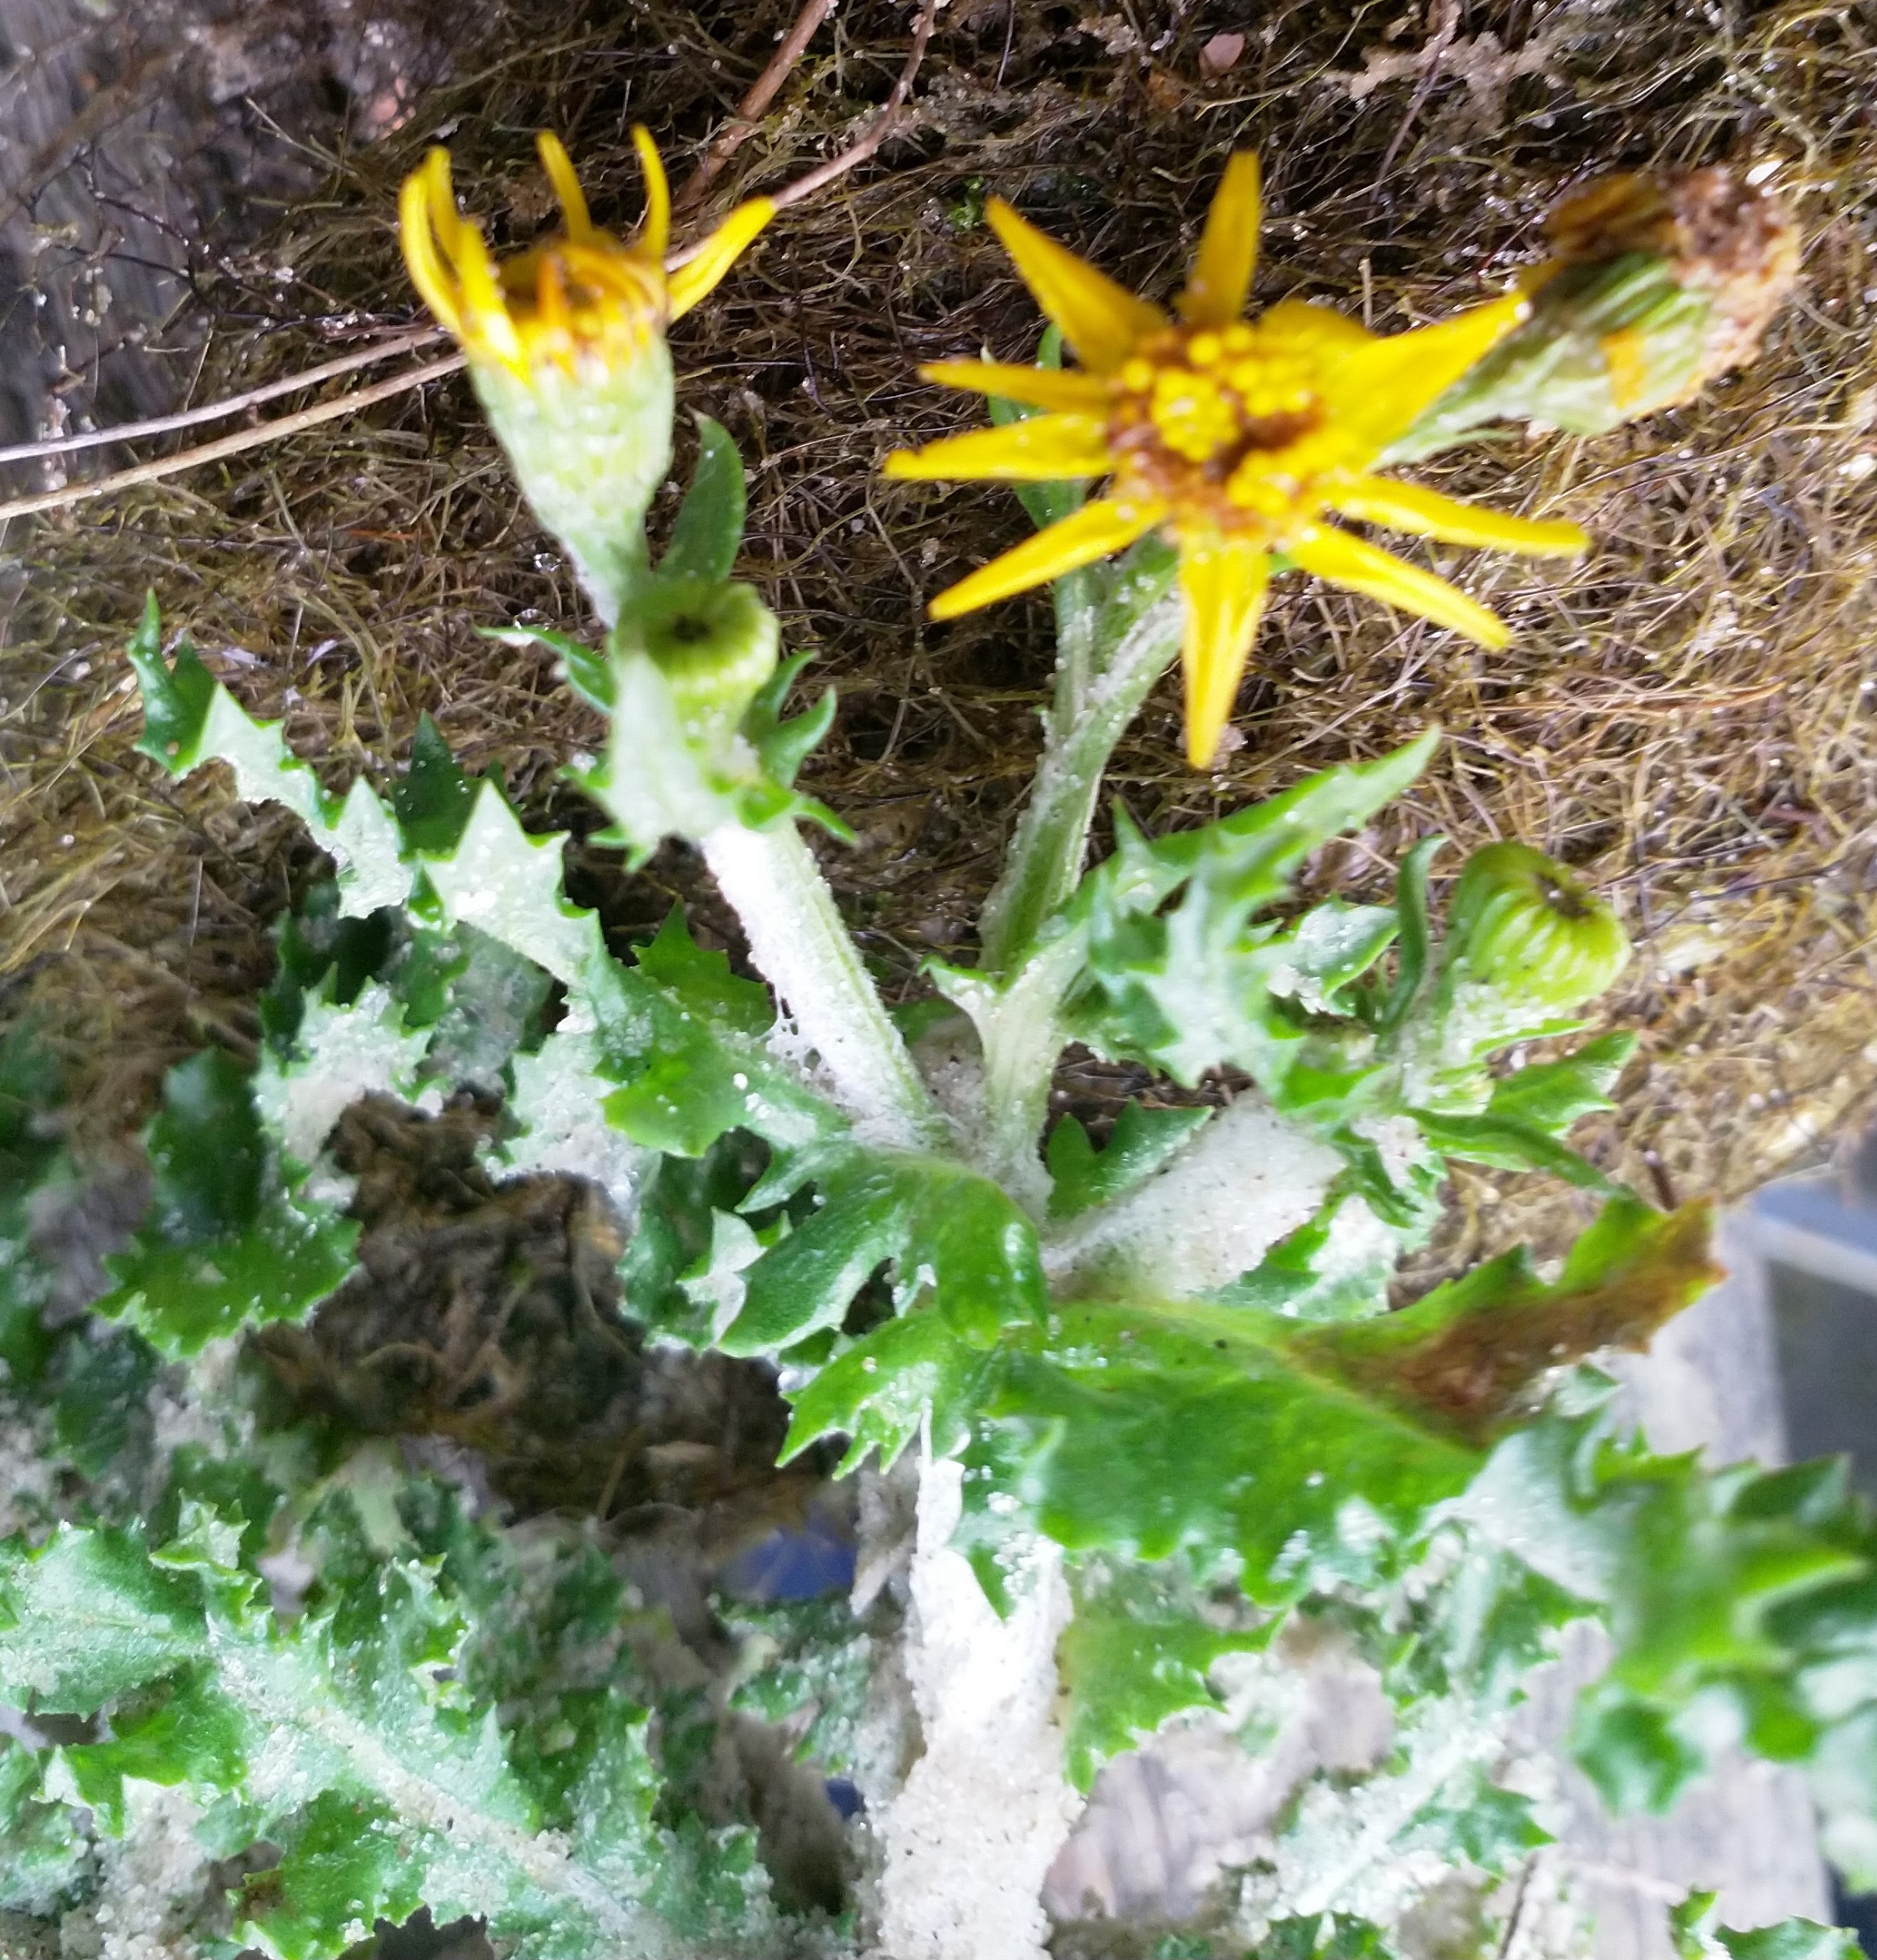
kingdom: Plantae
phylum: Tracheophyta
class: Magnoliopsida
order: Asterales
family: Asteraceae
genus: Senecio
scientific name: Senecio leucanthemifolius
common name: Vår-brandbæger
